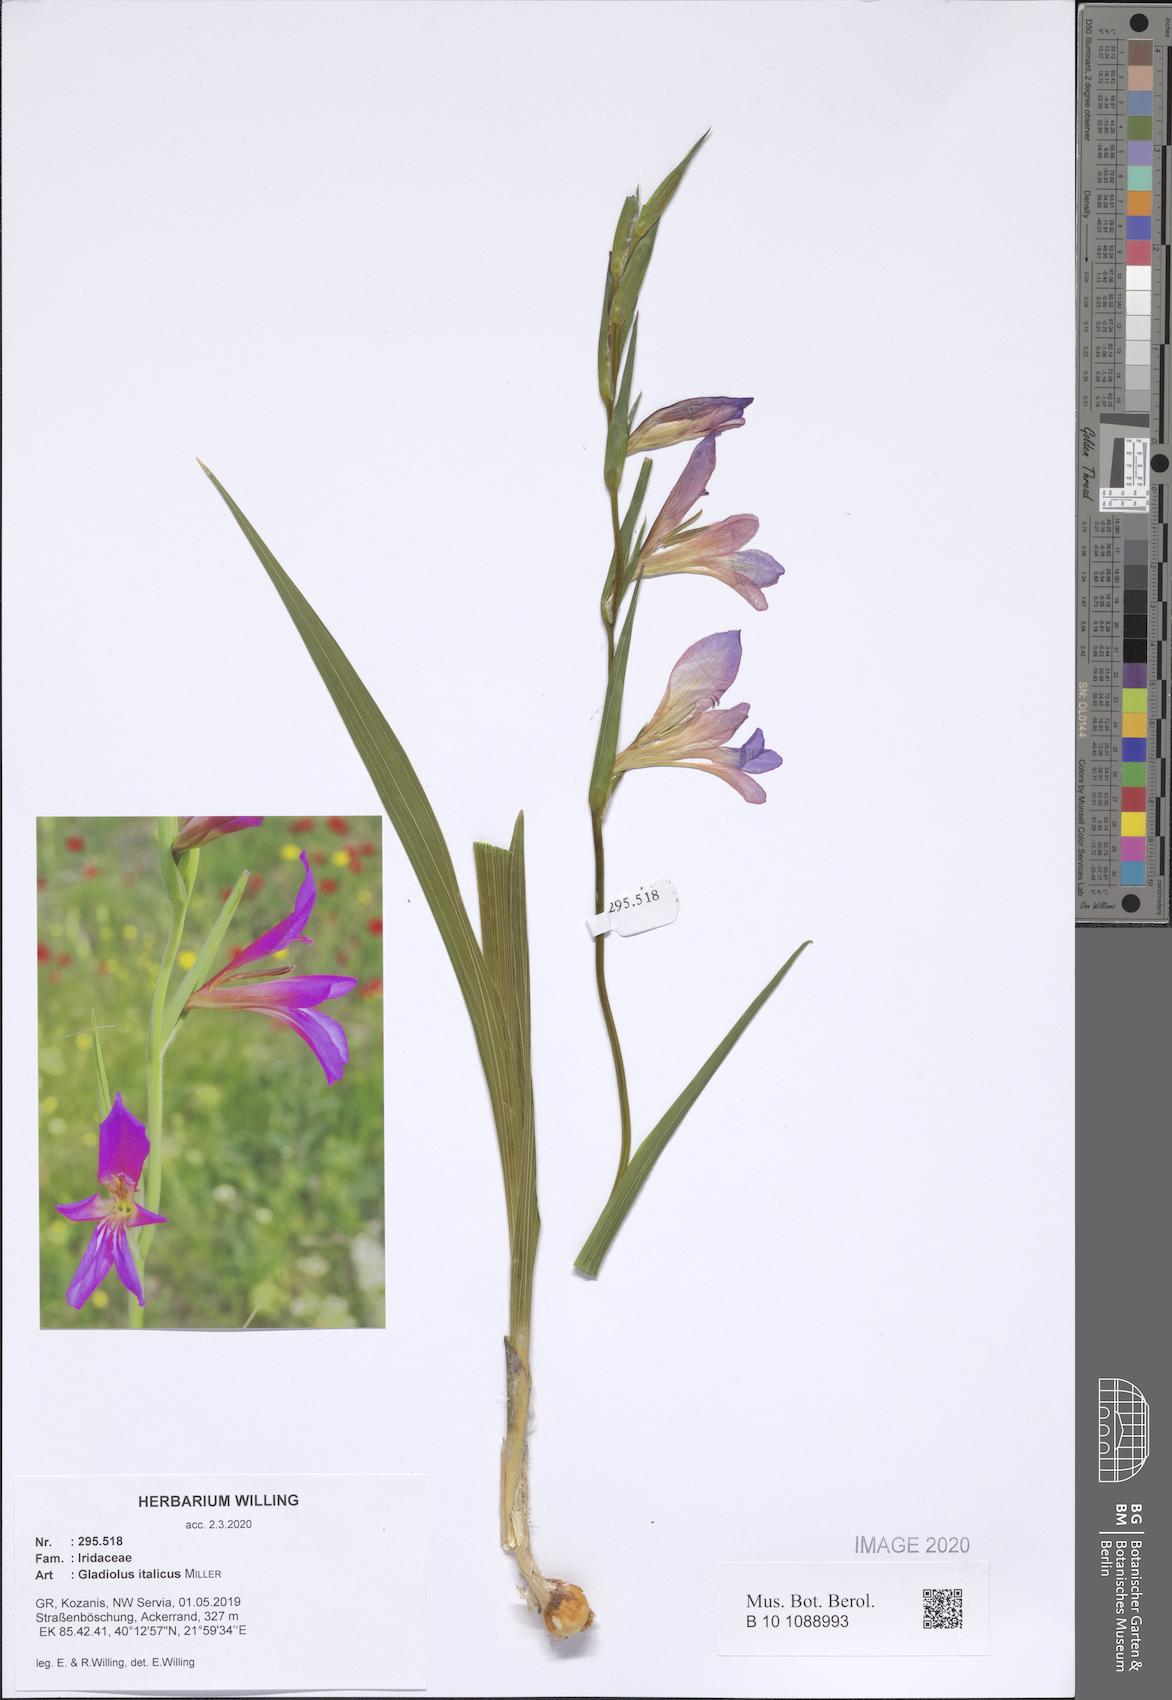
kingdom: Plantae
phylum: Tracheophyta
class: Liliopsida
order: Asparagales
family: Iridaceae
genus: Gladiolus
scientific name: Gladiolus italicus
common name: Field gladiolus
